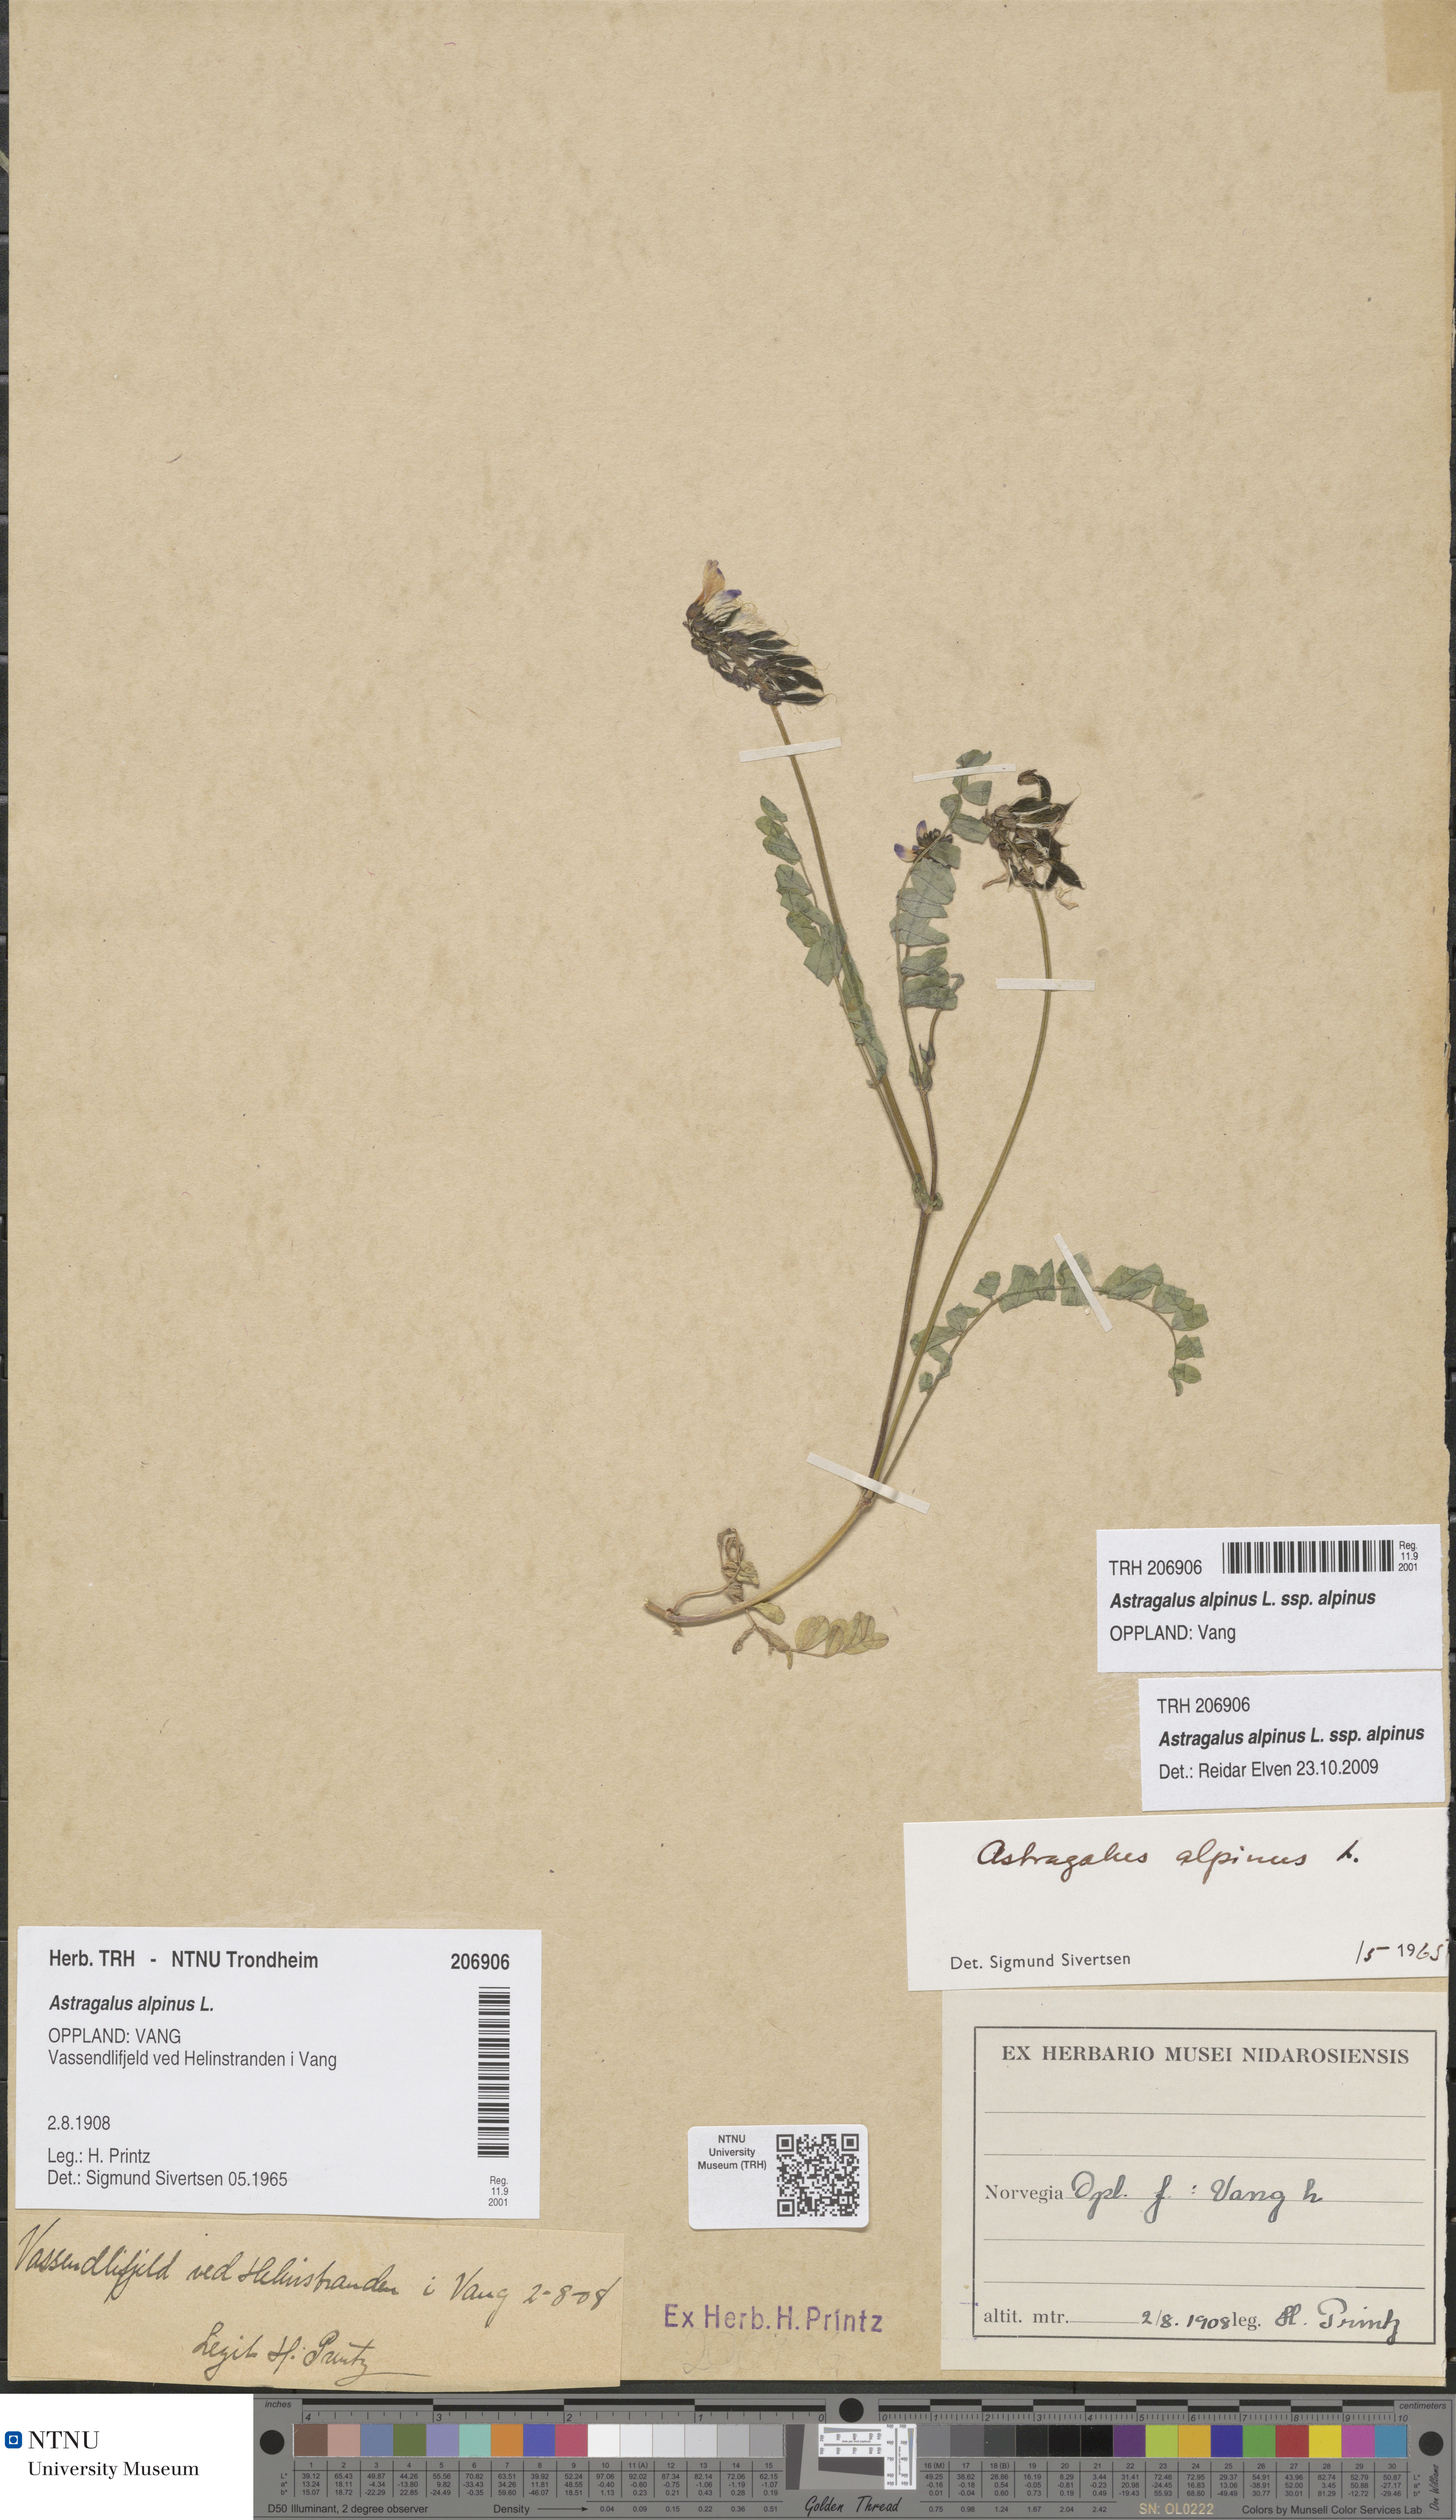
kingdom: Plantae
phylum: Tracheophyta
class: Magnoliopsida
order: Fabales
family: Fabaceae
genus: Astragalus
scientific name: Astragalus alpinus
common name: Alpine milk-vetch
